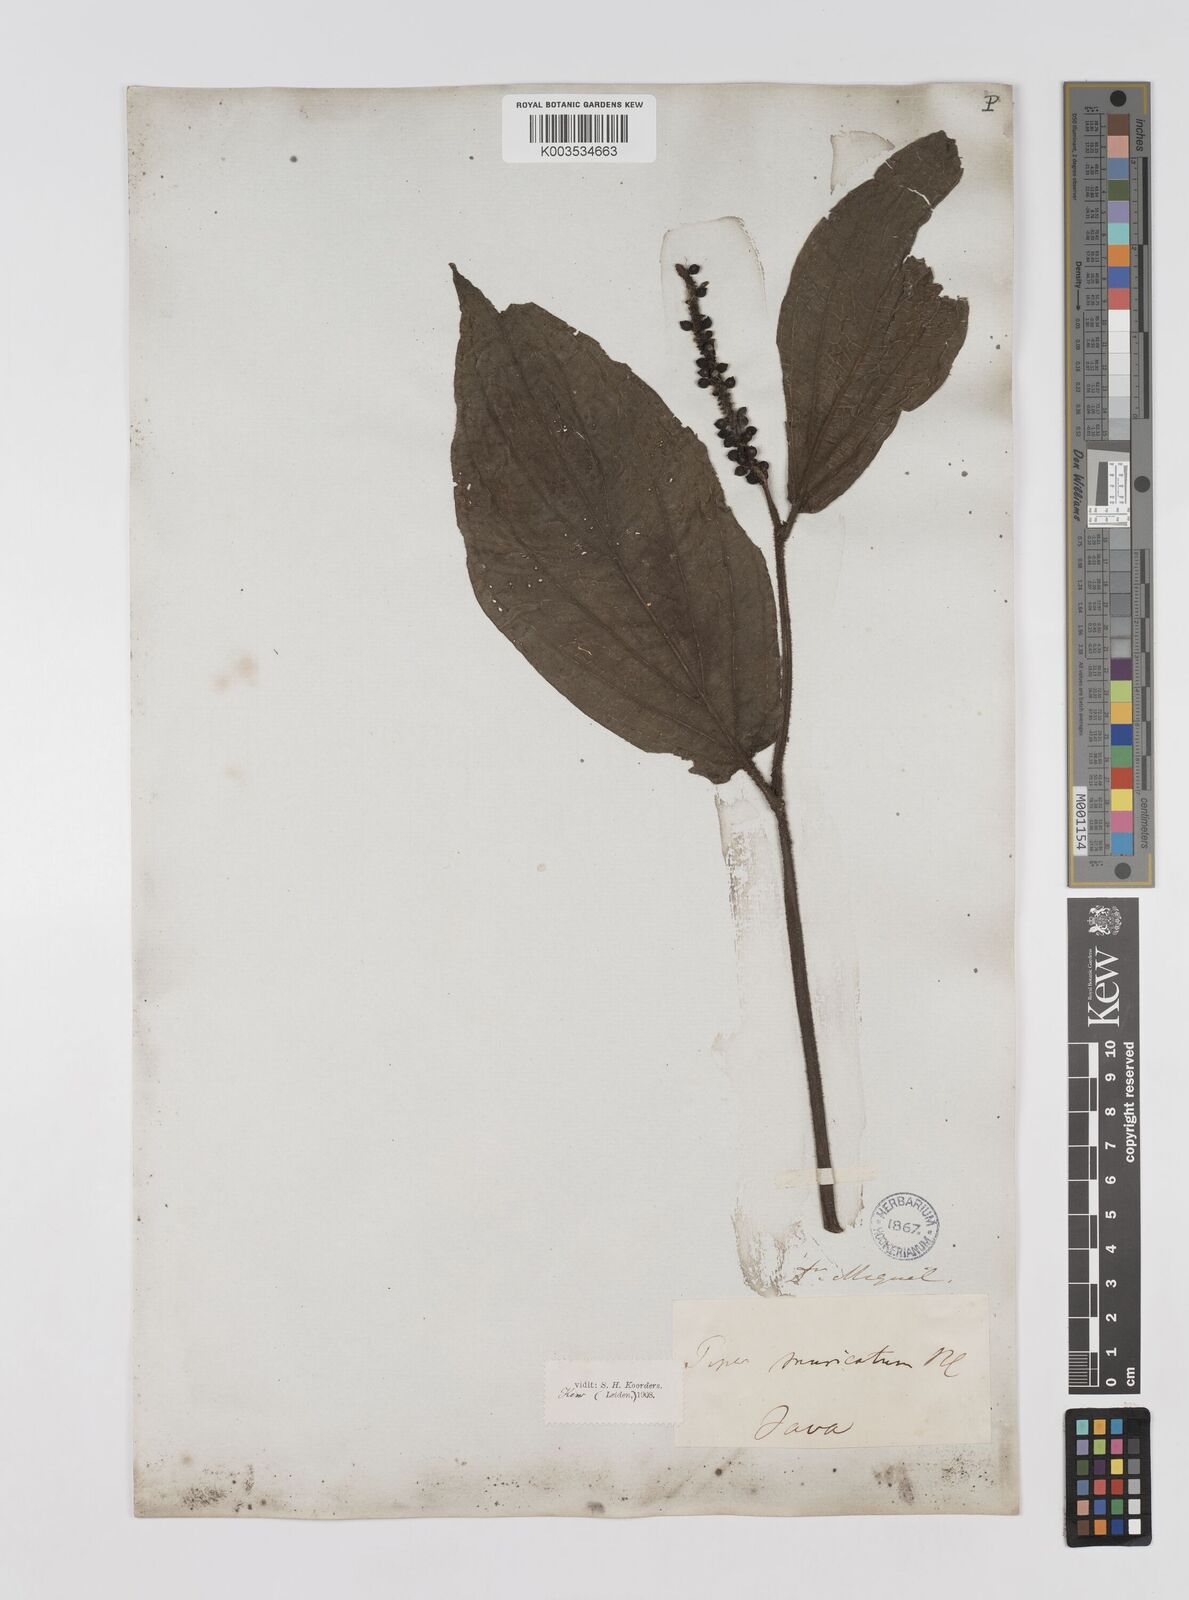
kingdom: Plantae
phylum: Tracheophyta
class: Magnoliopsida
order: Piperales
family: Piperaceae
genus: Piper
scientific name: Piper muricatum
